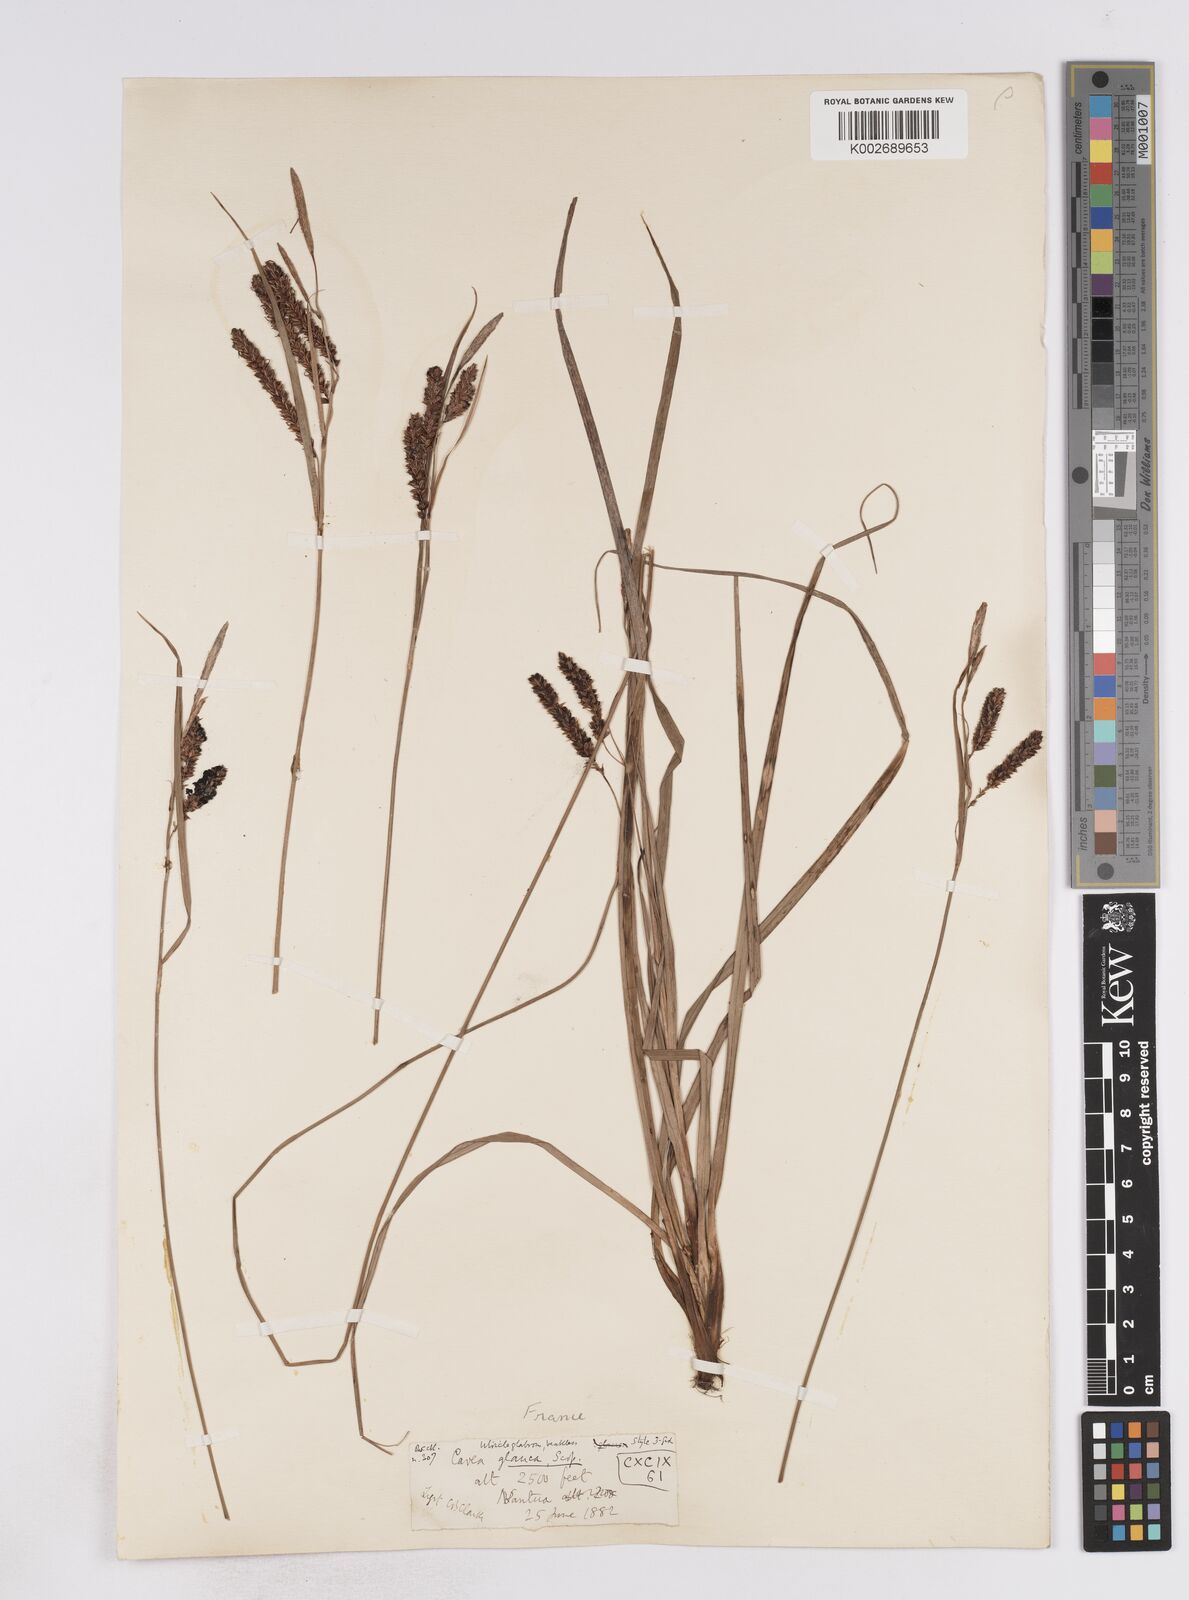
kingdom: Plantae
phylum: Tracheophyta
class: Liliopsida
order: Poales
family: Cyperaceae
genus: Carex
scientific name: Carex flacca
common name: Glaucous sedge
